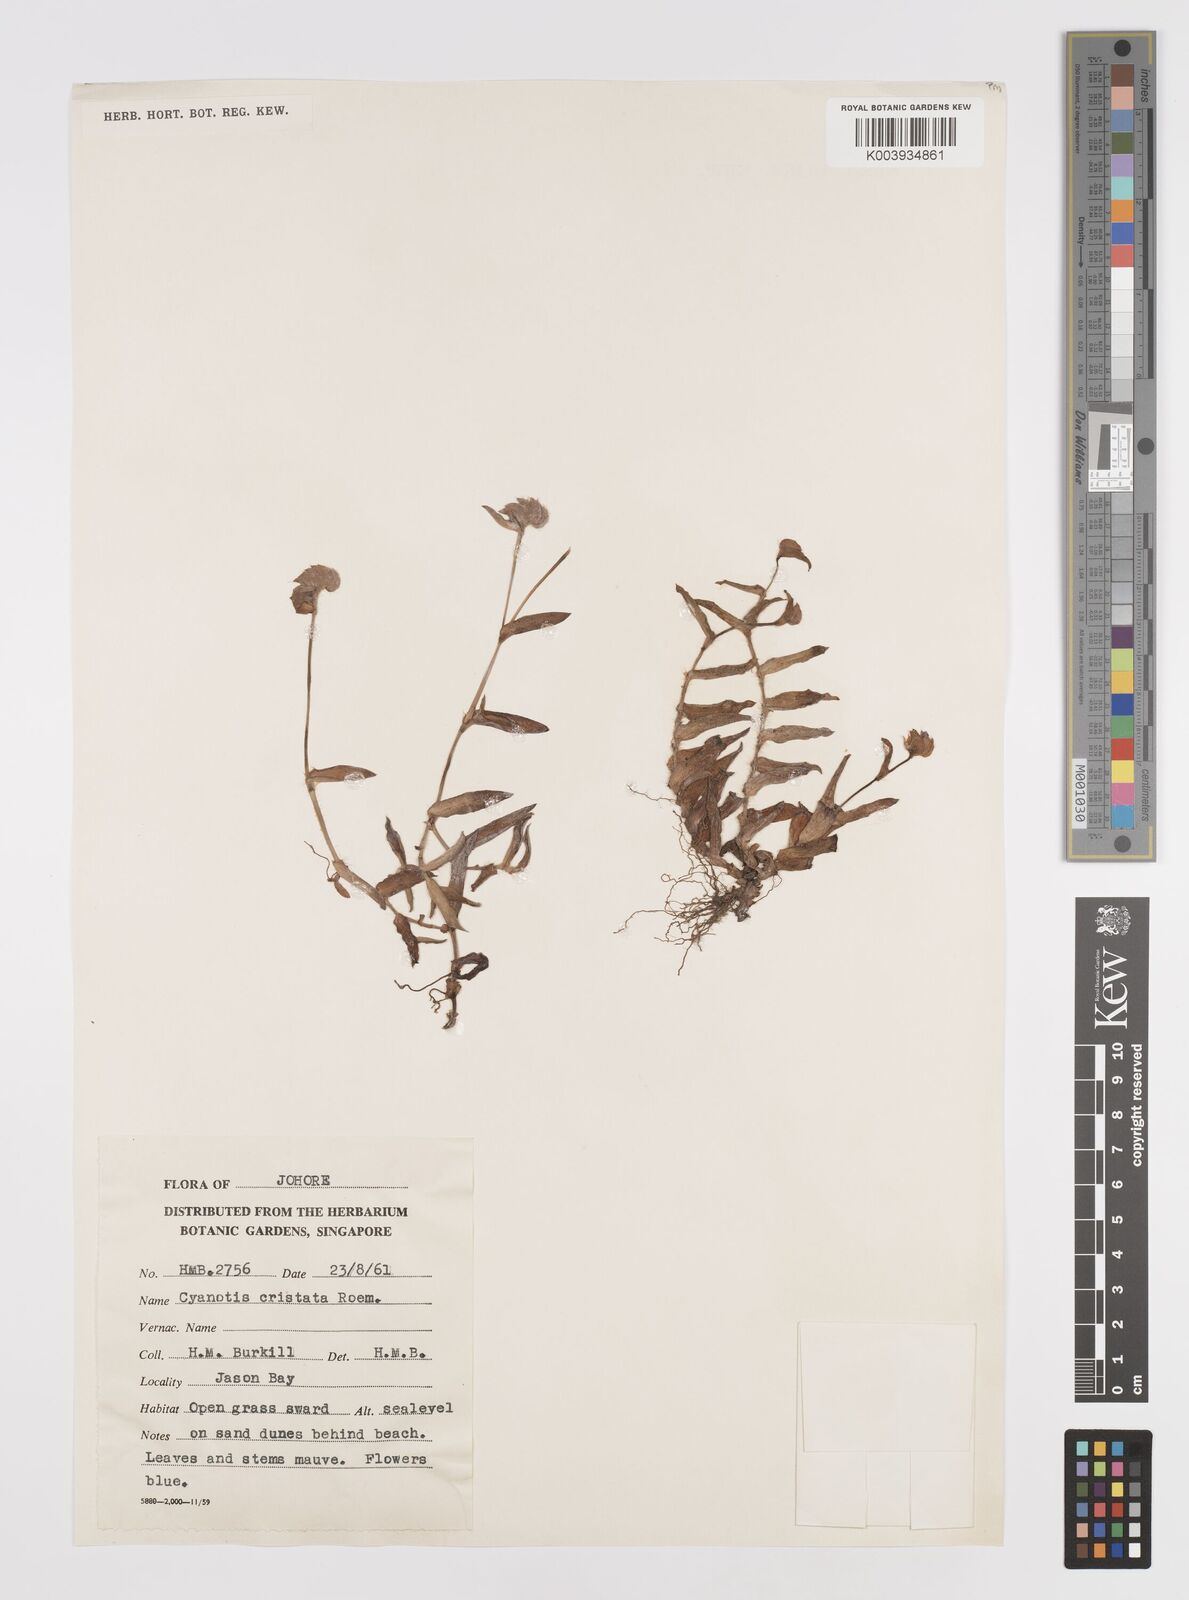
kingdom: Plantae
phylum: Tracheophyta
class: Liliopsida
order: Commelinales
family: Commelinaceae
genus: Cyanotis
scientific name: Cyanotis cristata
